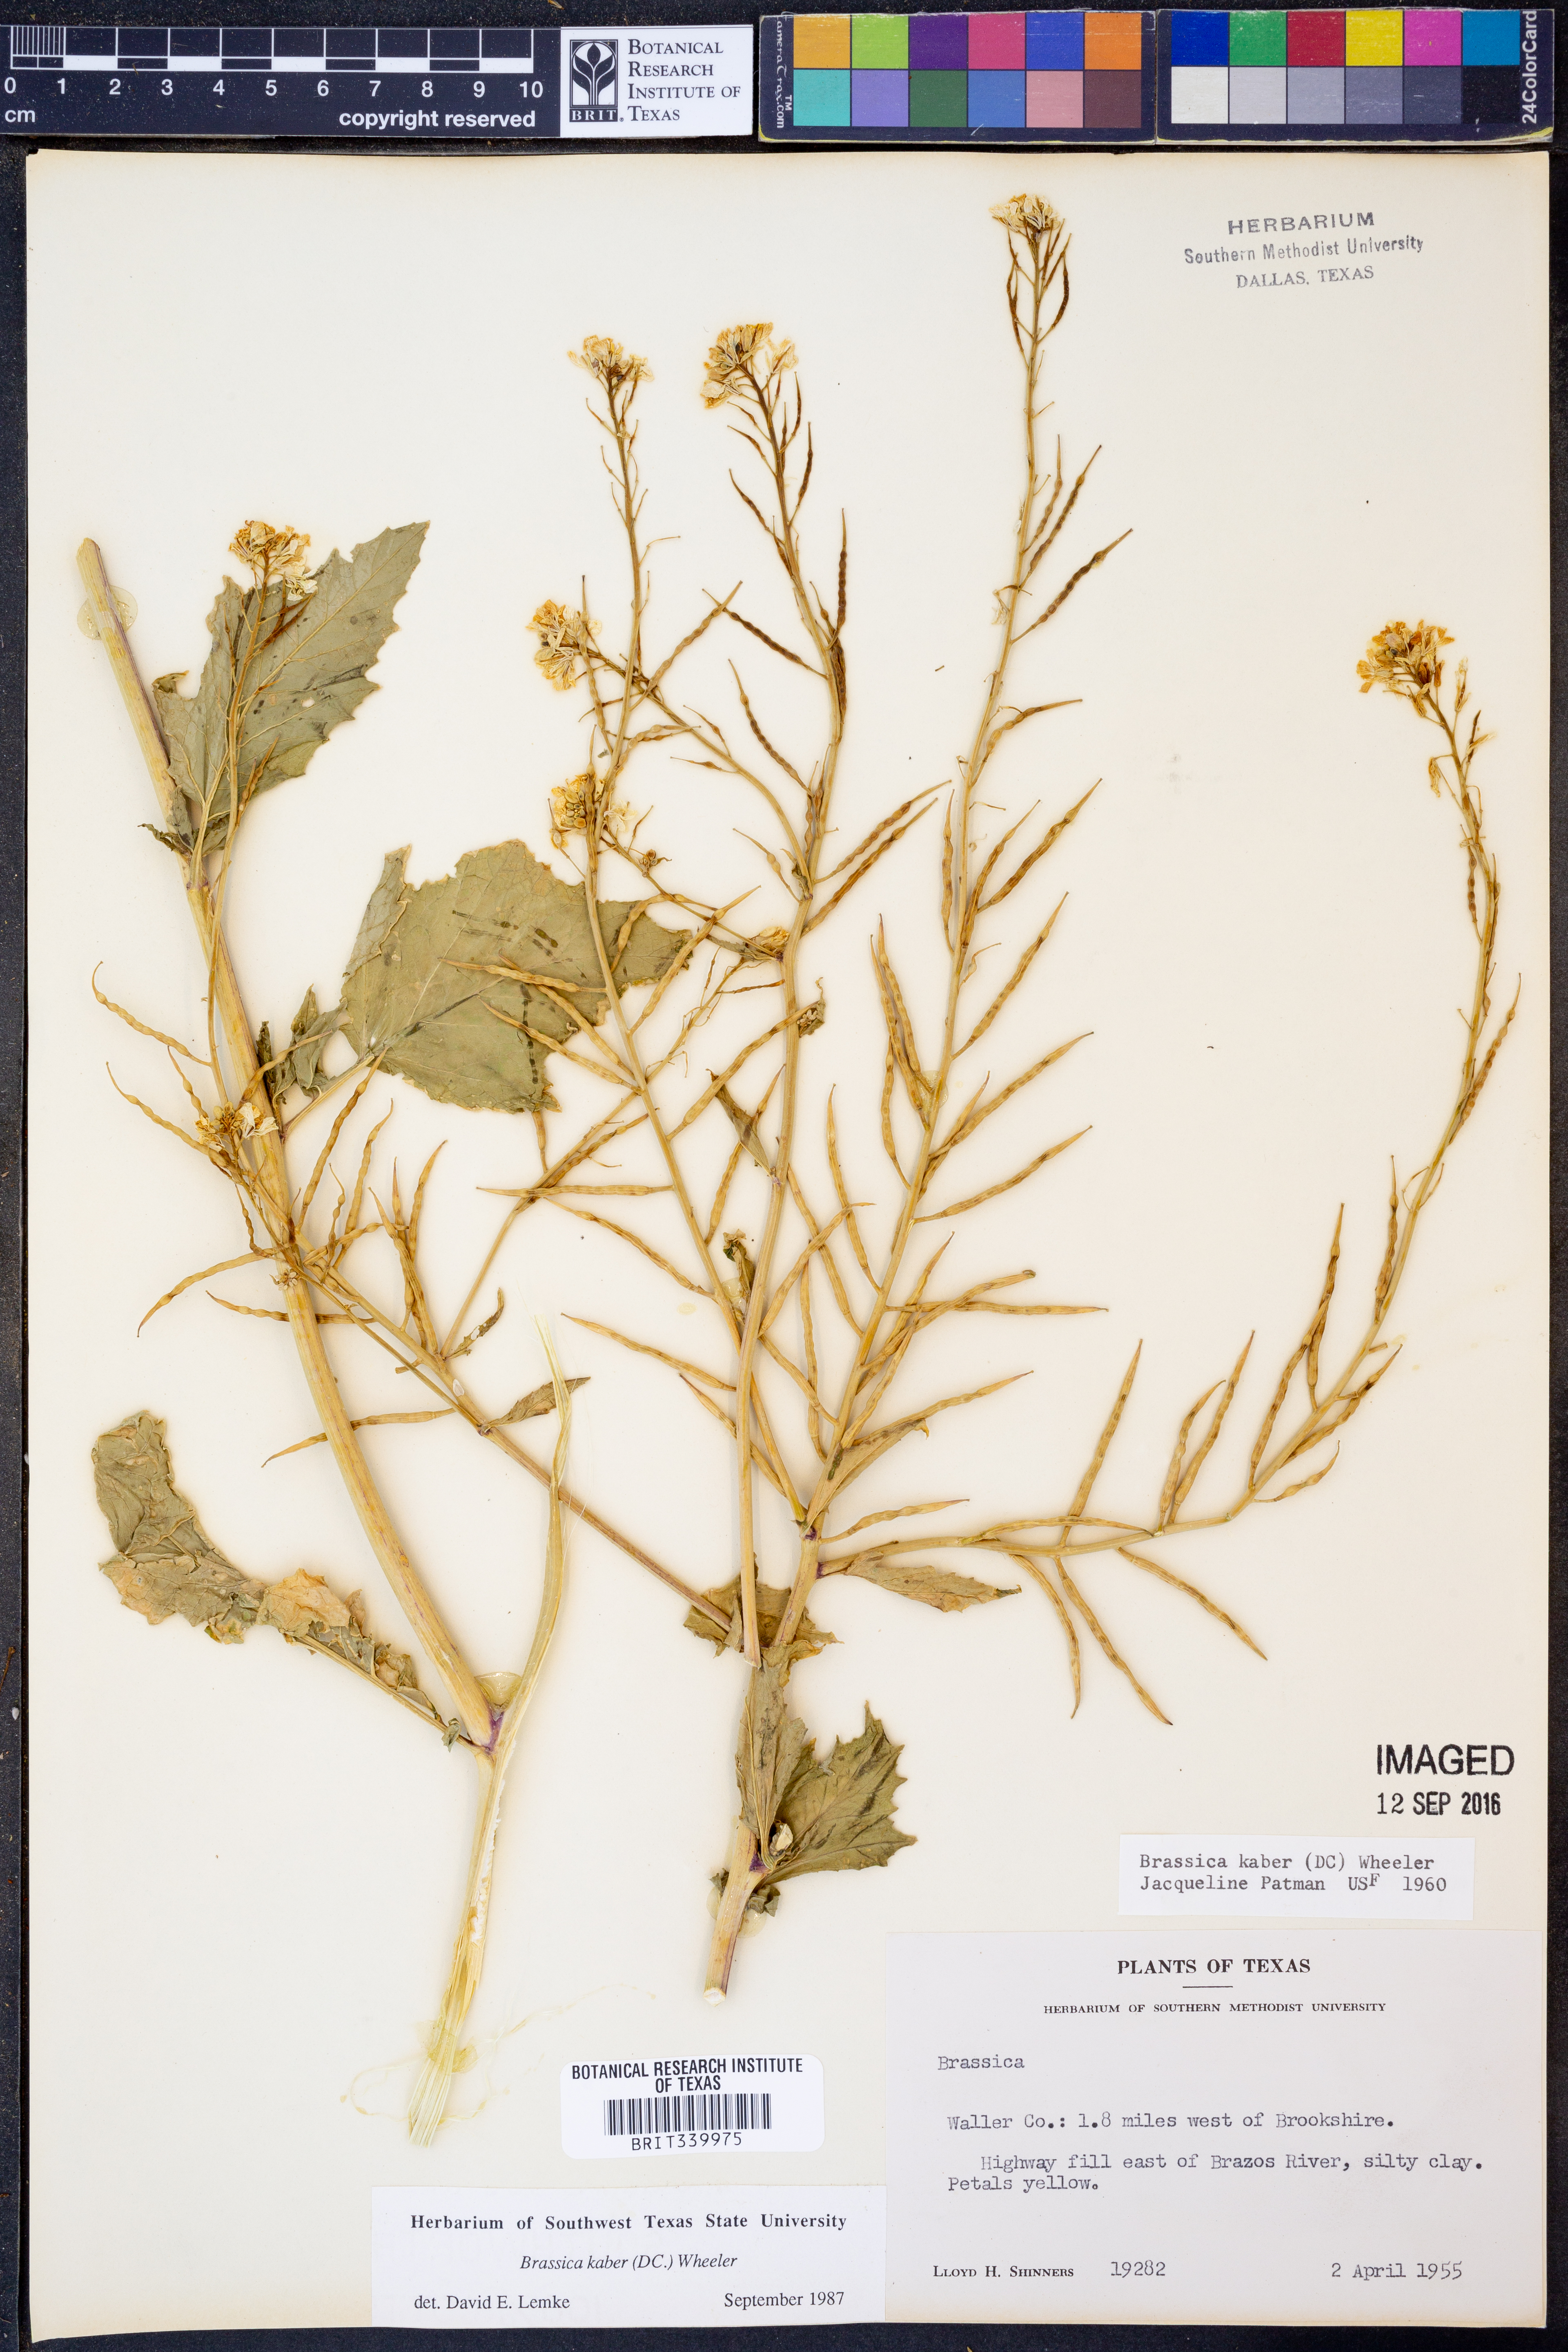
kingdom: Plantae
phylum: Tracheophyta
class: Magnoliopsida
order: Brassicales
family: Brassicaceae
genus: Sinapis
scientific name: Sinapis arvensis
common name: Charlock
